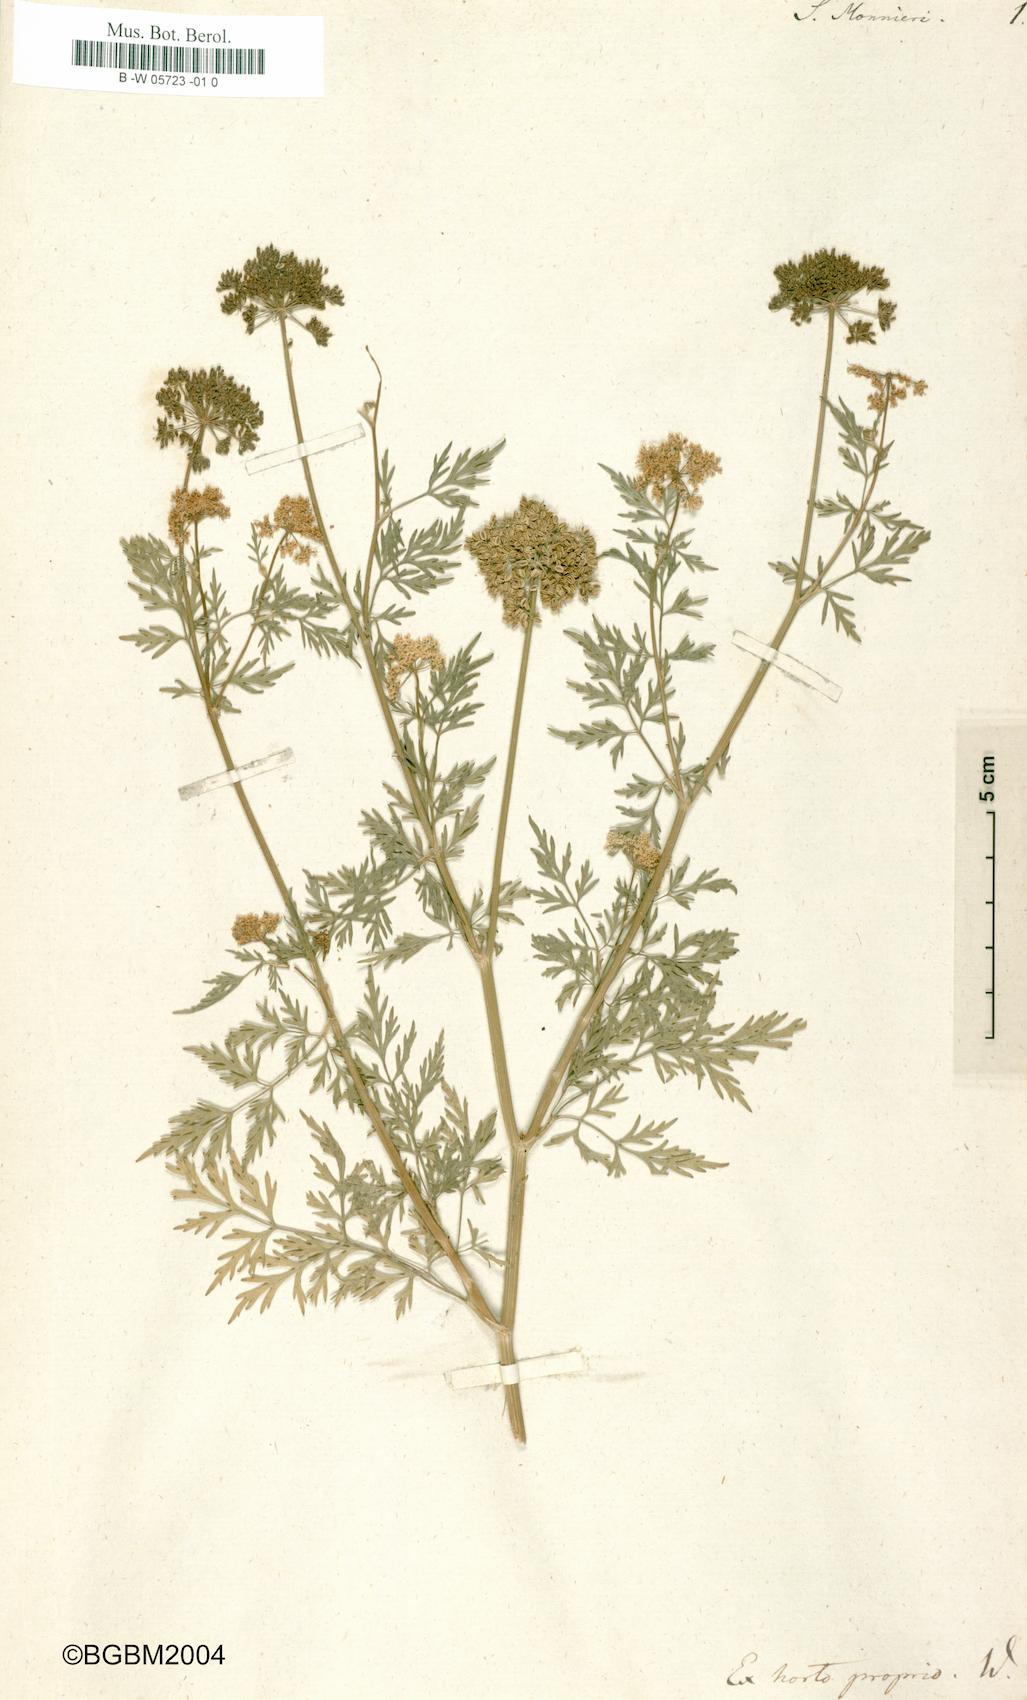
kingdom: Plantae
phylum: Tracheophyta
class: Magnoliopsida
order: Apiales
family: Apiaceae
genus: Cnidium
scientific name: Cnidium monnieri
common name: Monnier's snowparsley
